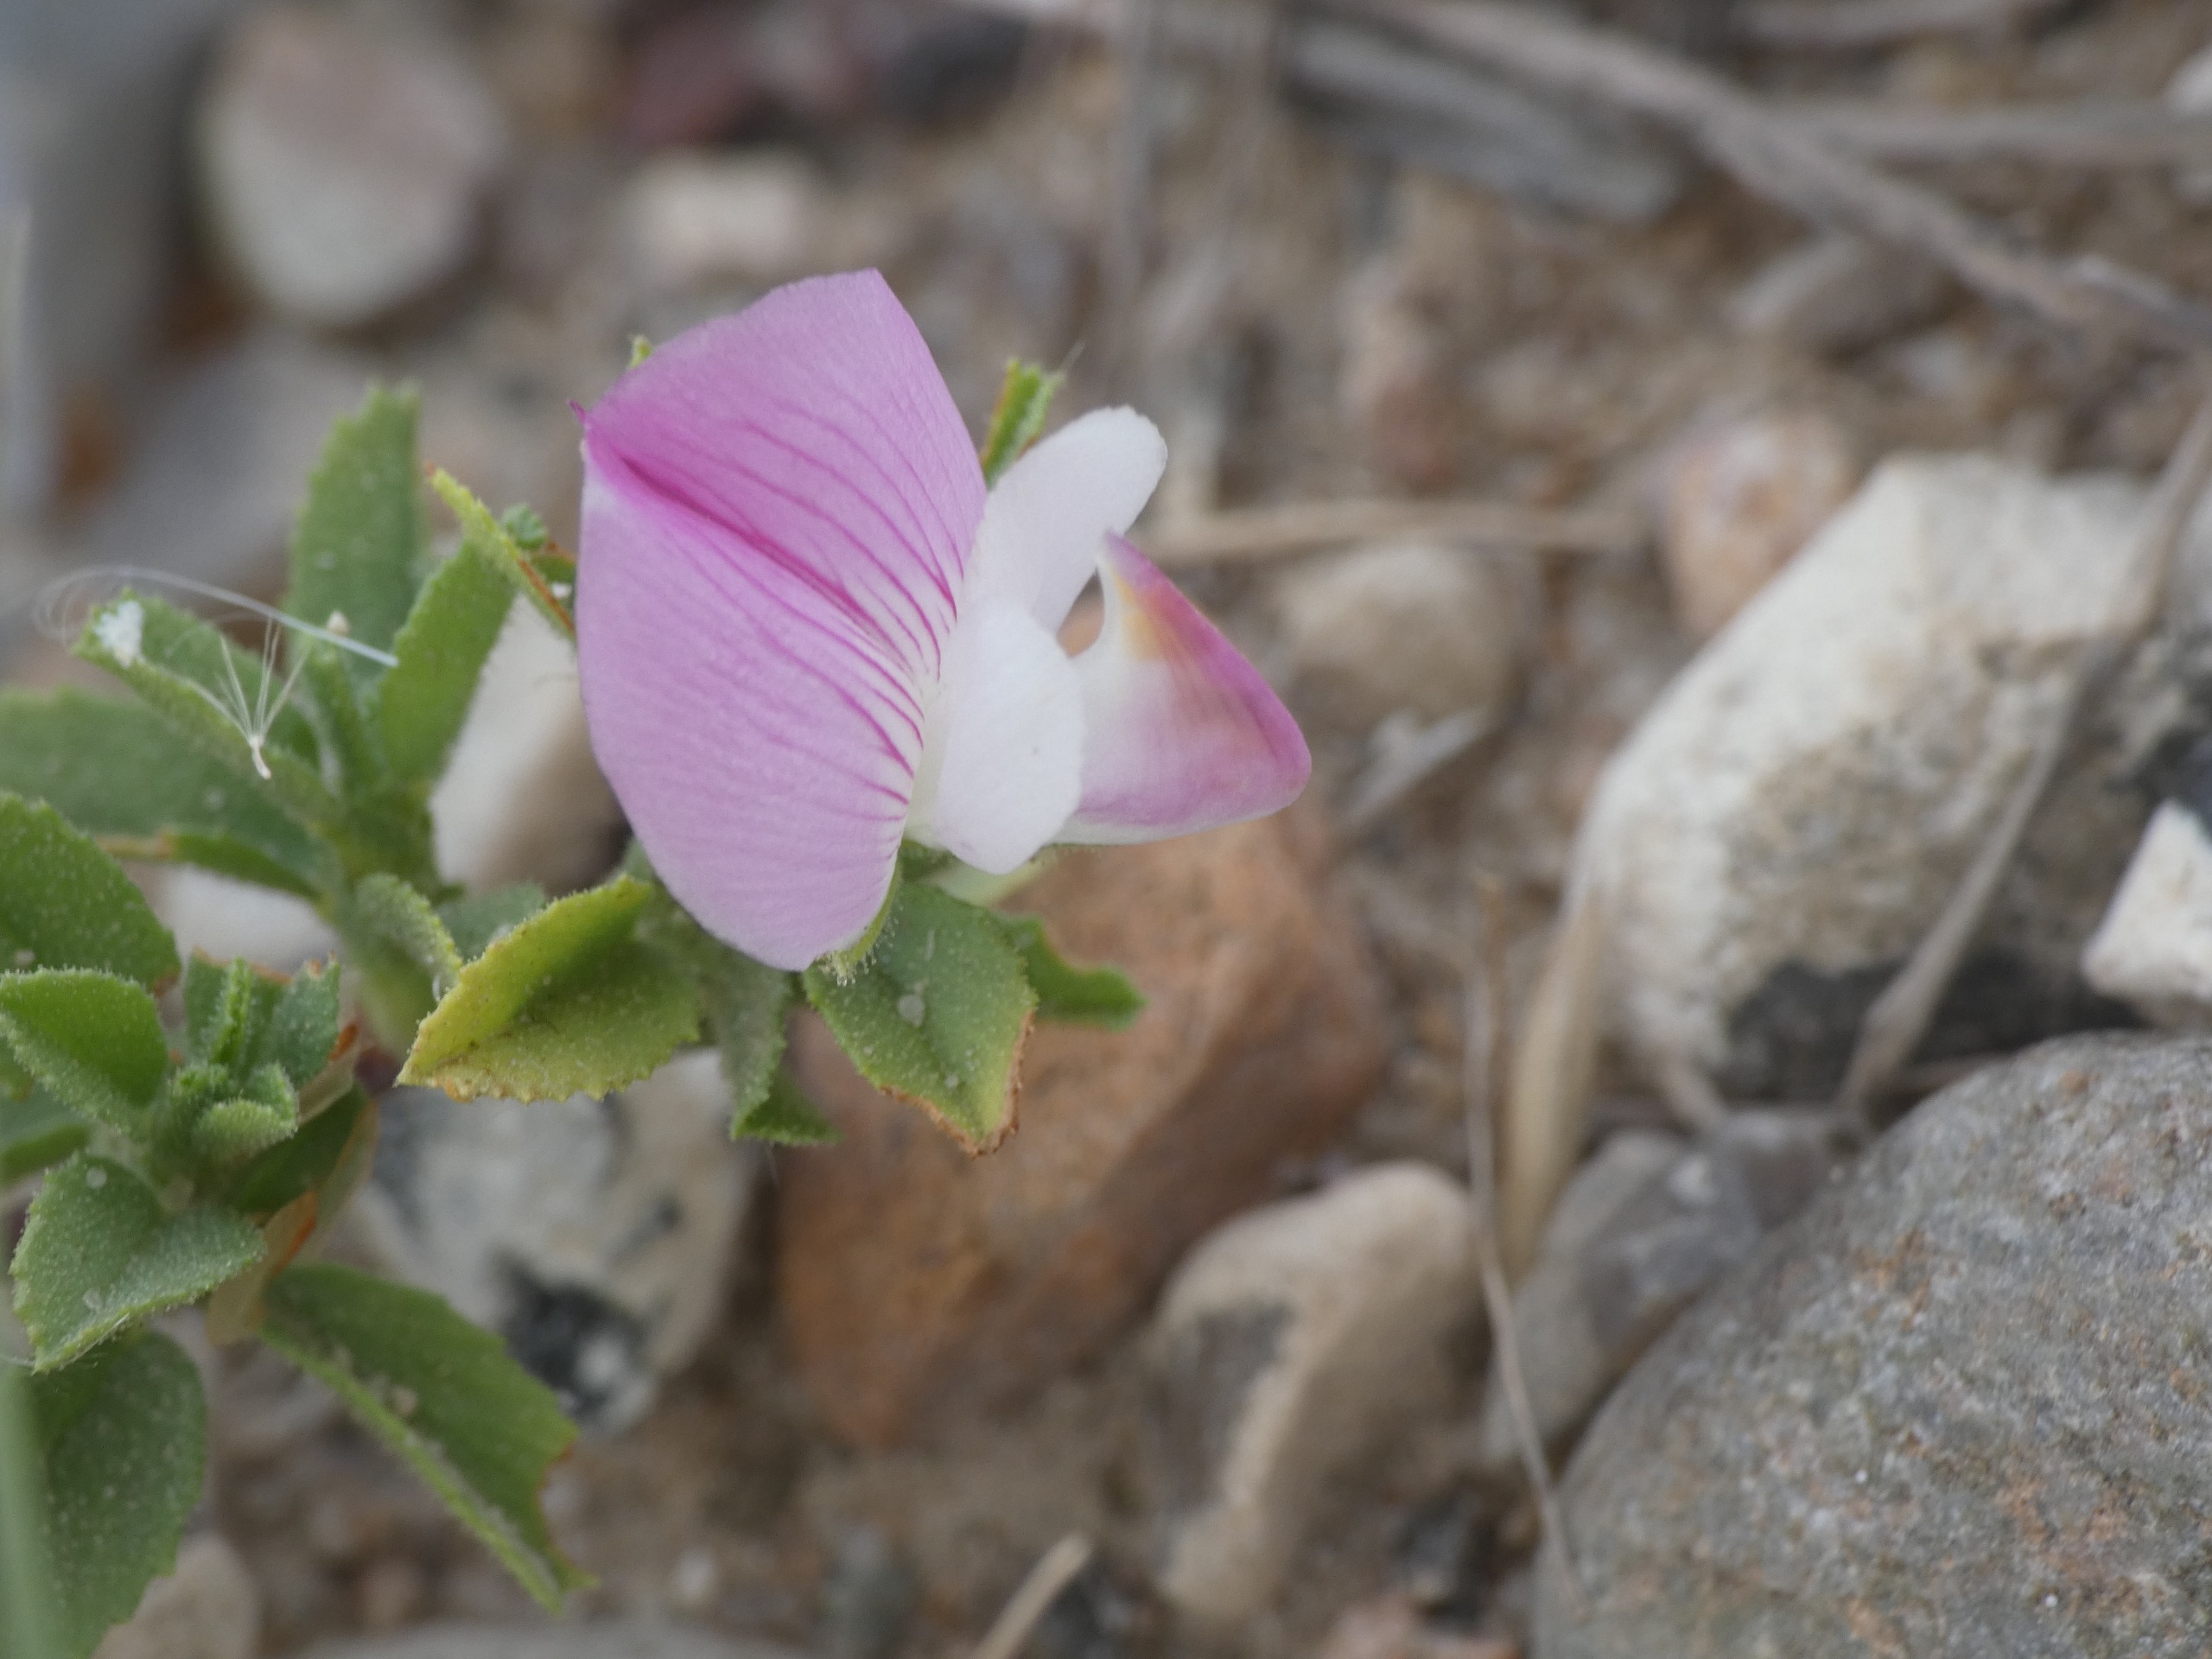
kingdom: Plantae
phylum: Tracheophyta
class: Magnoliopsida
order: Fabales
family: Fabaceae
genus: Ononis
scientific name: Ononis spinosa
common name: Mark-krageklo
